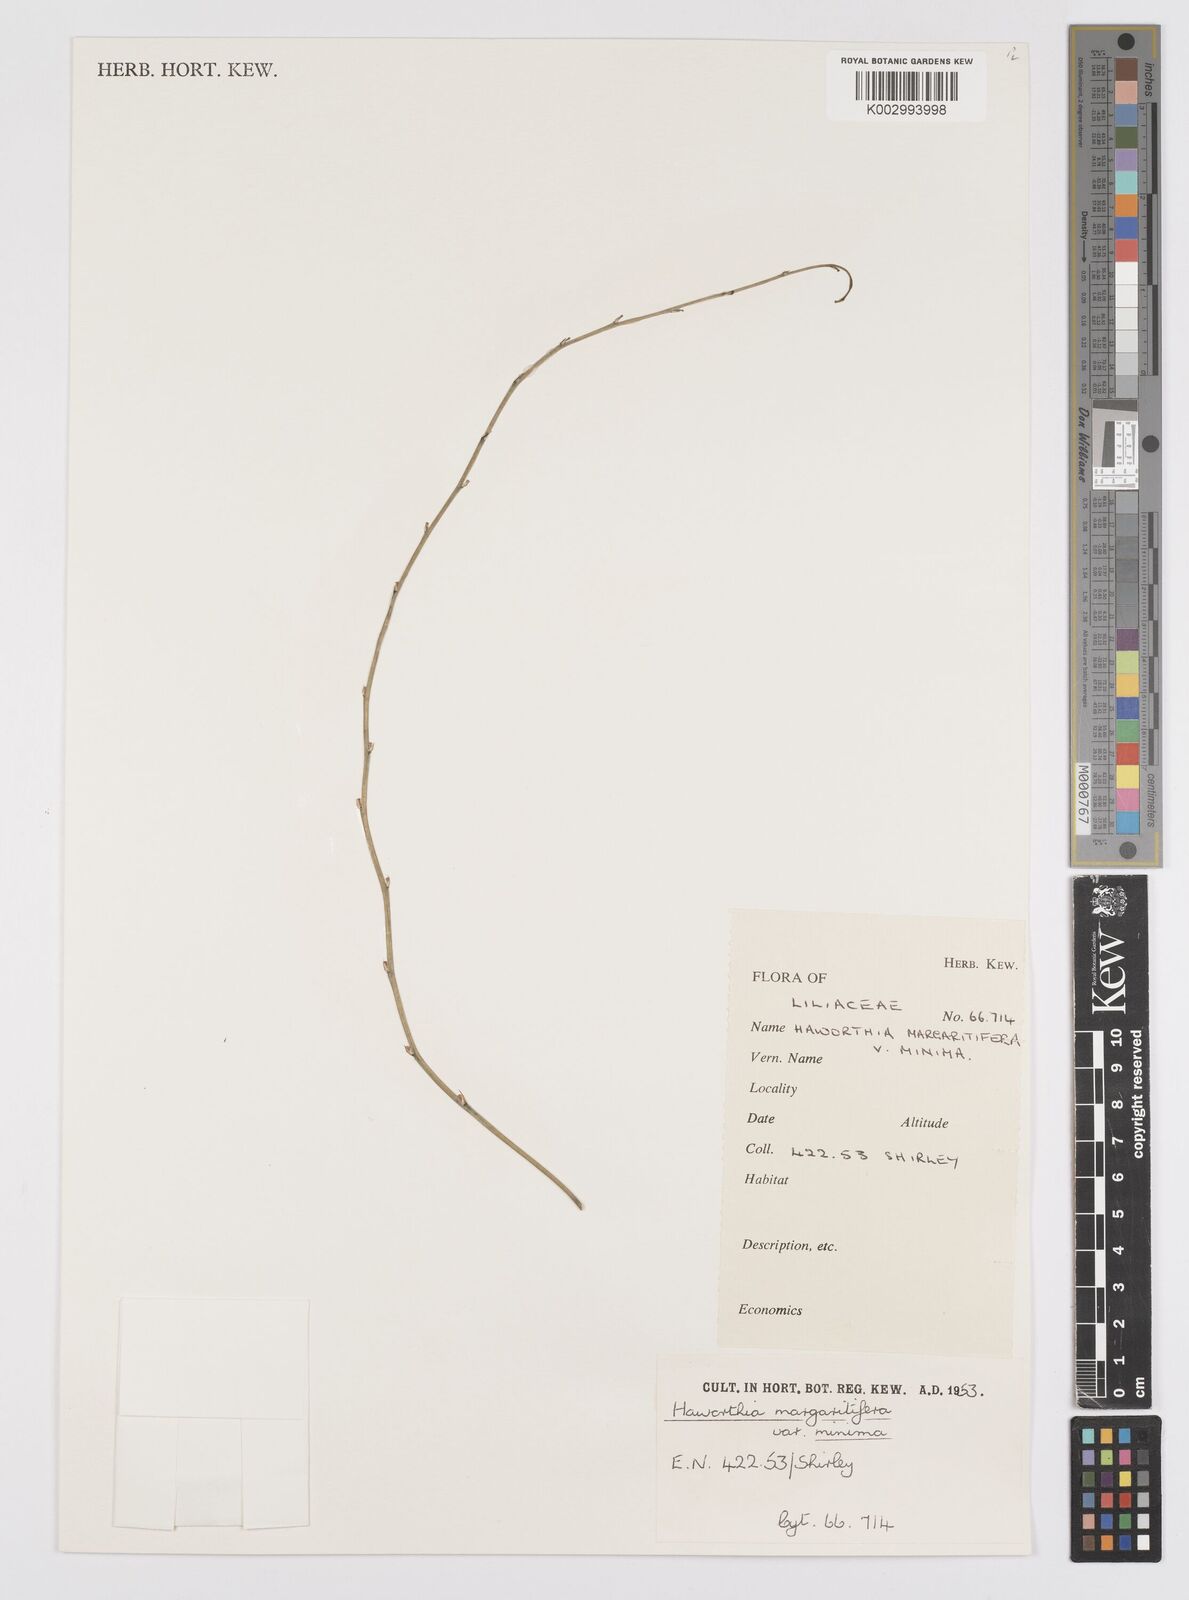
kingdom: Plantae
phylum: Tracheophyta
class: Liliopsida
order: Asparagales
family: Asphodelaceae
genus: Tulista
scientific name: Tulista pumila
